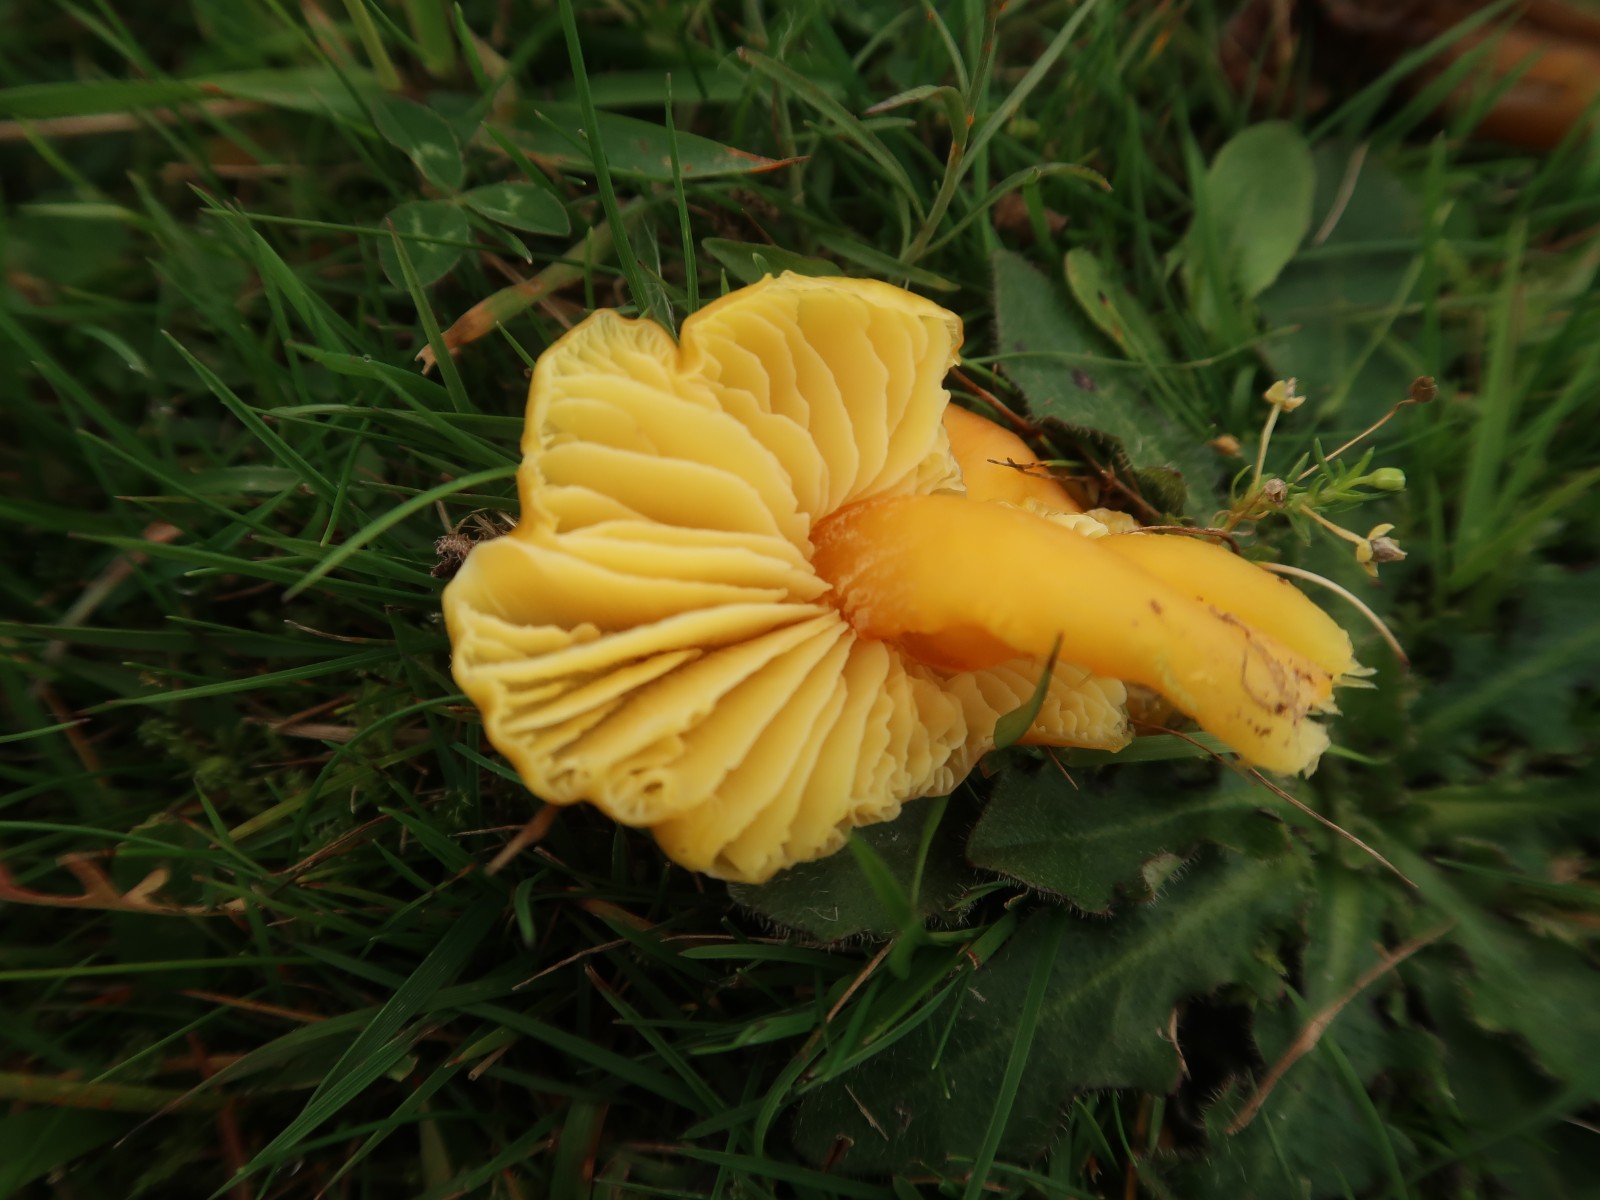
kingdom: Fungi
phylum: Basidiomycota
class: Agaricomycetes
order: Agaricales
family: Hygrophoraceae
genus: Hygrocybe
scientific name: Hygrocybe chlorophana
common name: gul vokshat
